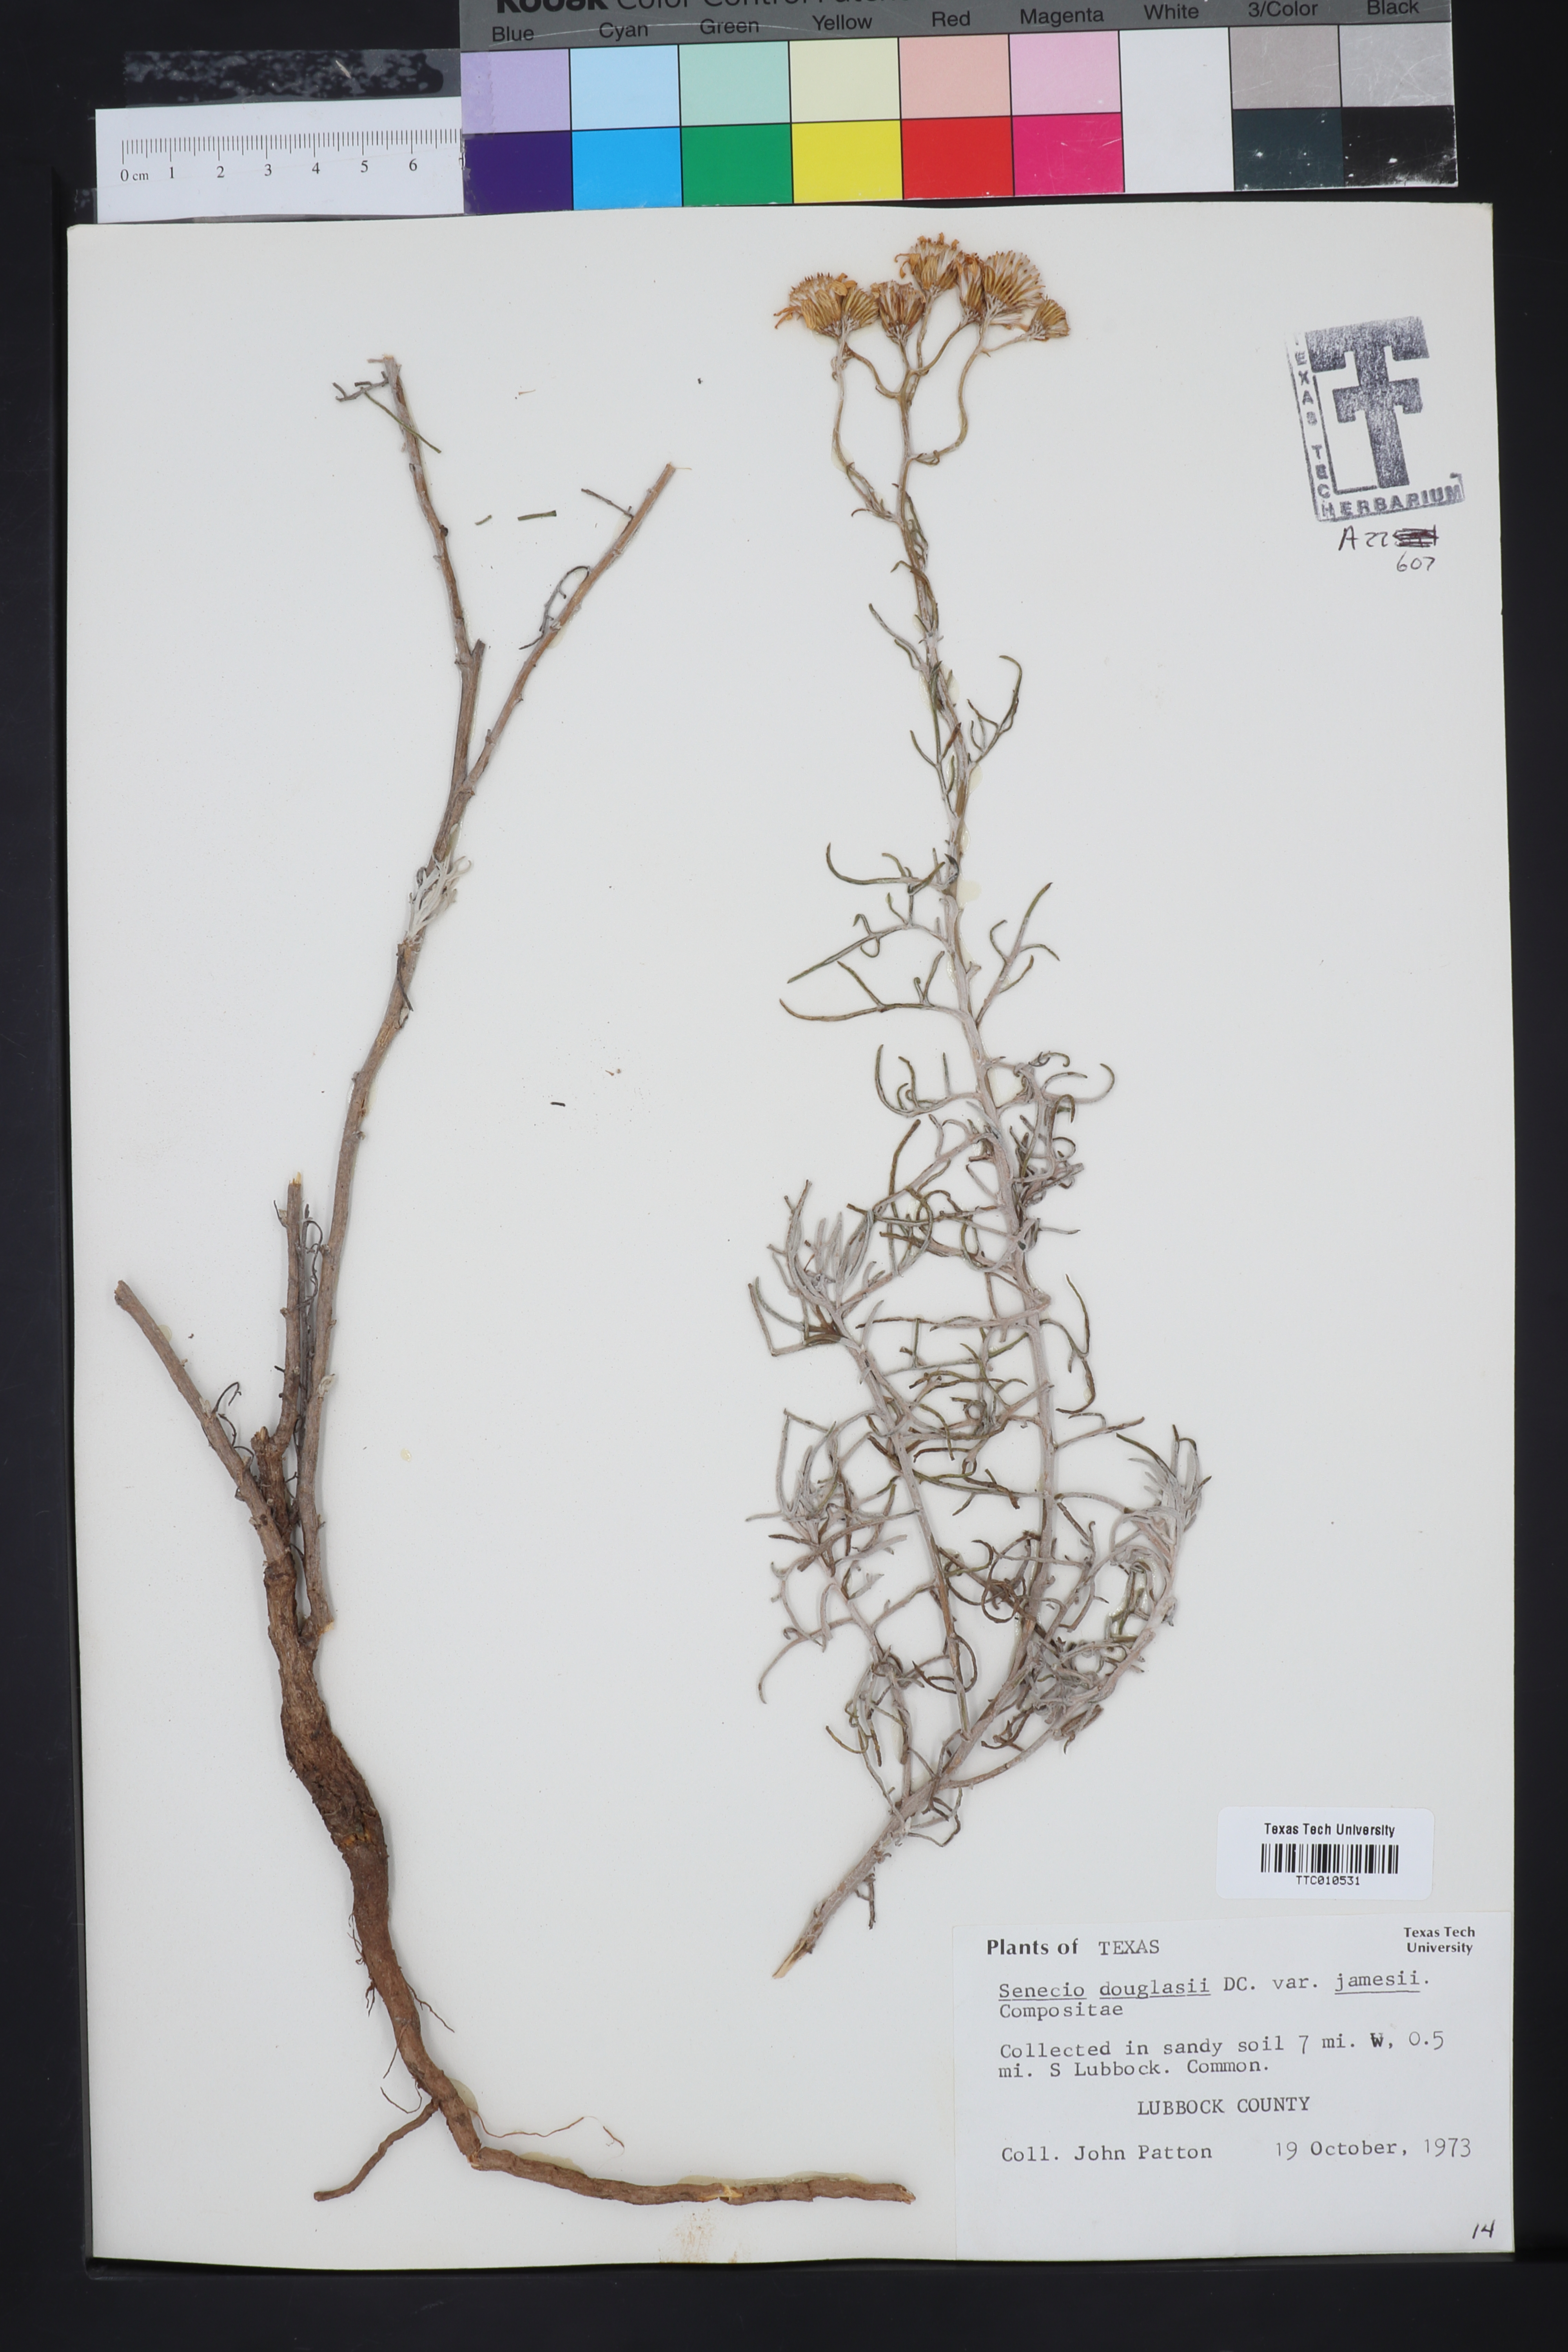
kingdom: Plantae
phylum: Tracheophyta
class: Magnoliopsida
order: Asterales
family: Asteraceae
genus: Senecio
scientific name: Senecio flaccidus
